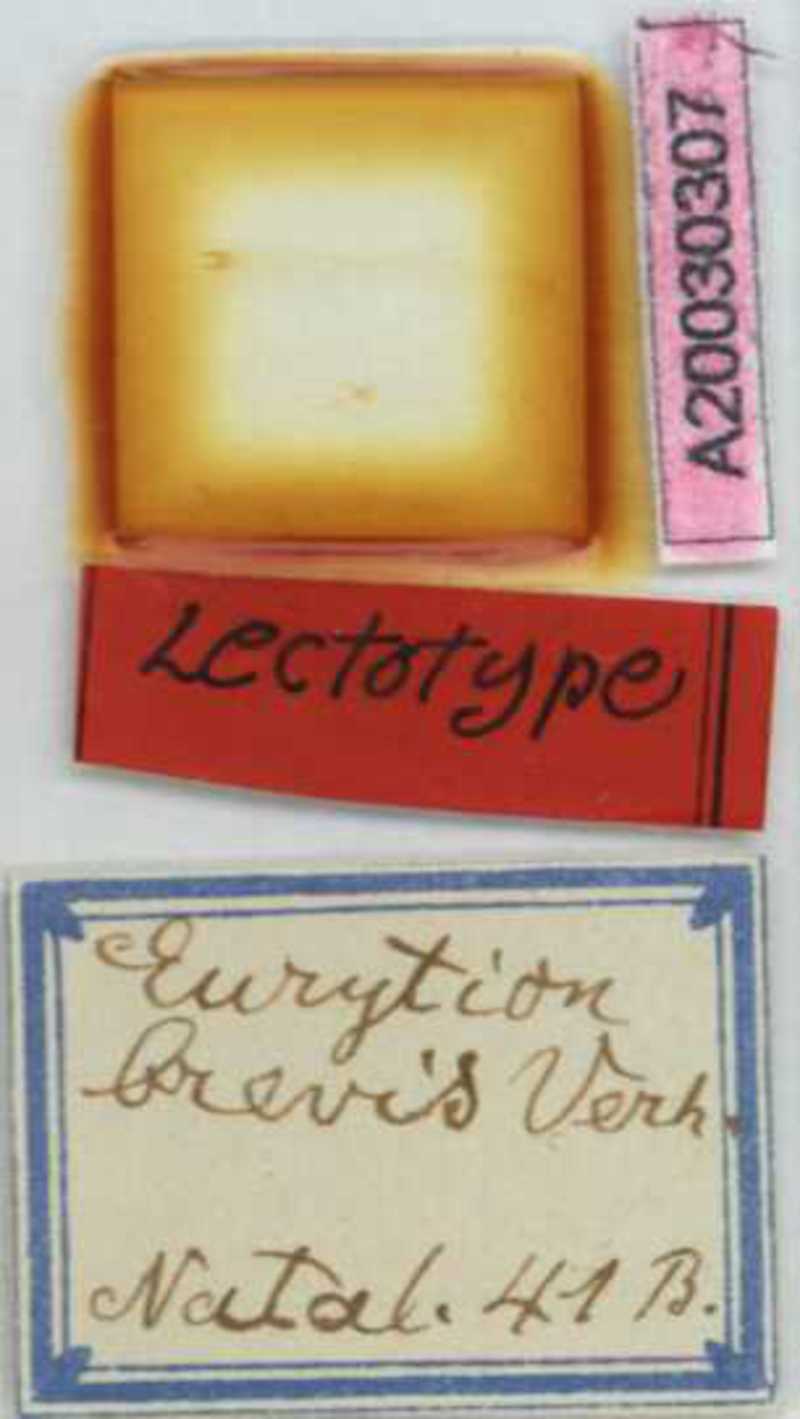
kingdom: Animalia
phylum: Arthropoda
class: Chilopoda
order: Geophilomorpha
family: Geophilidae
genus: Eurytion
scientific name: Eurytion brevis
